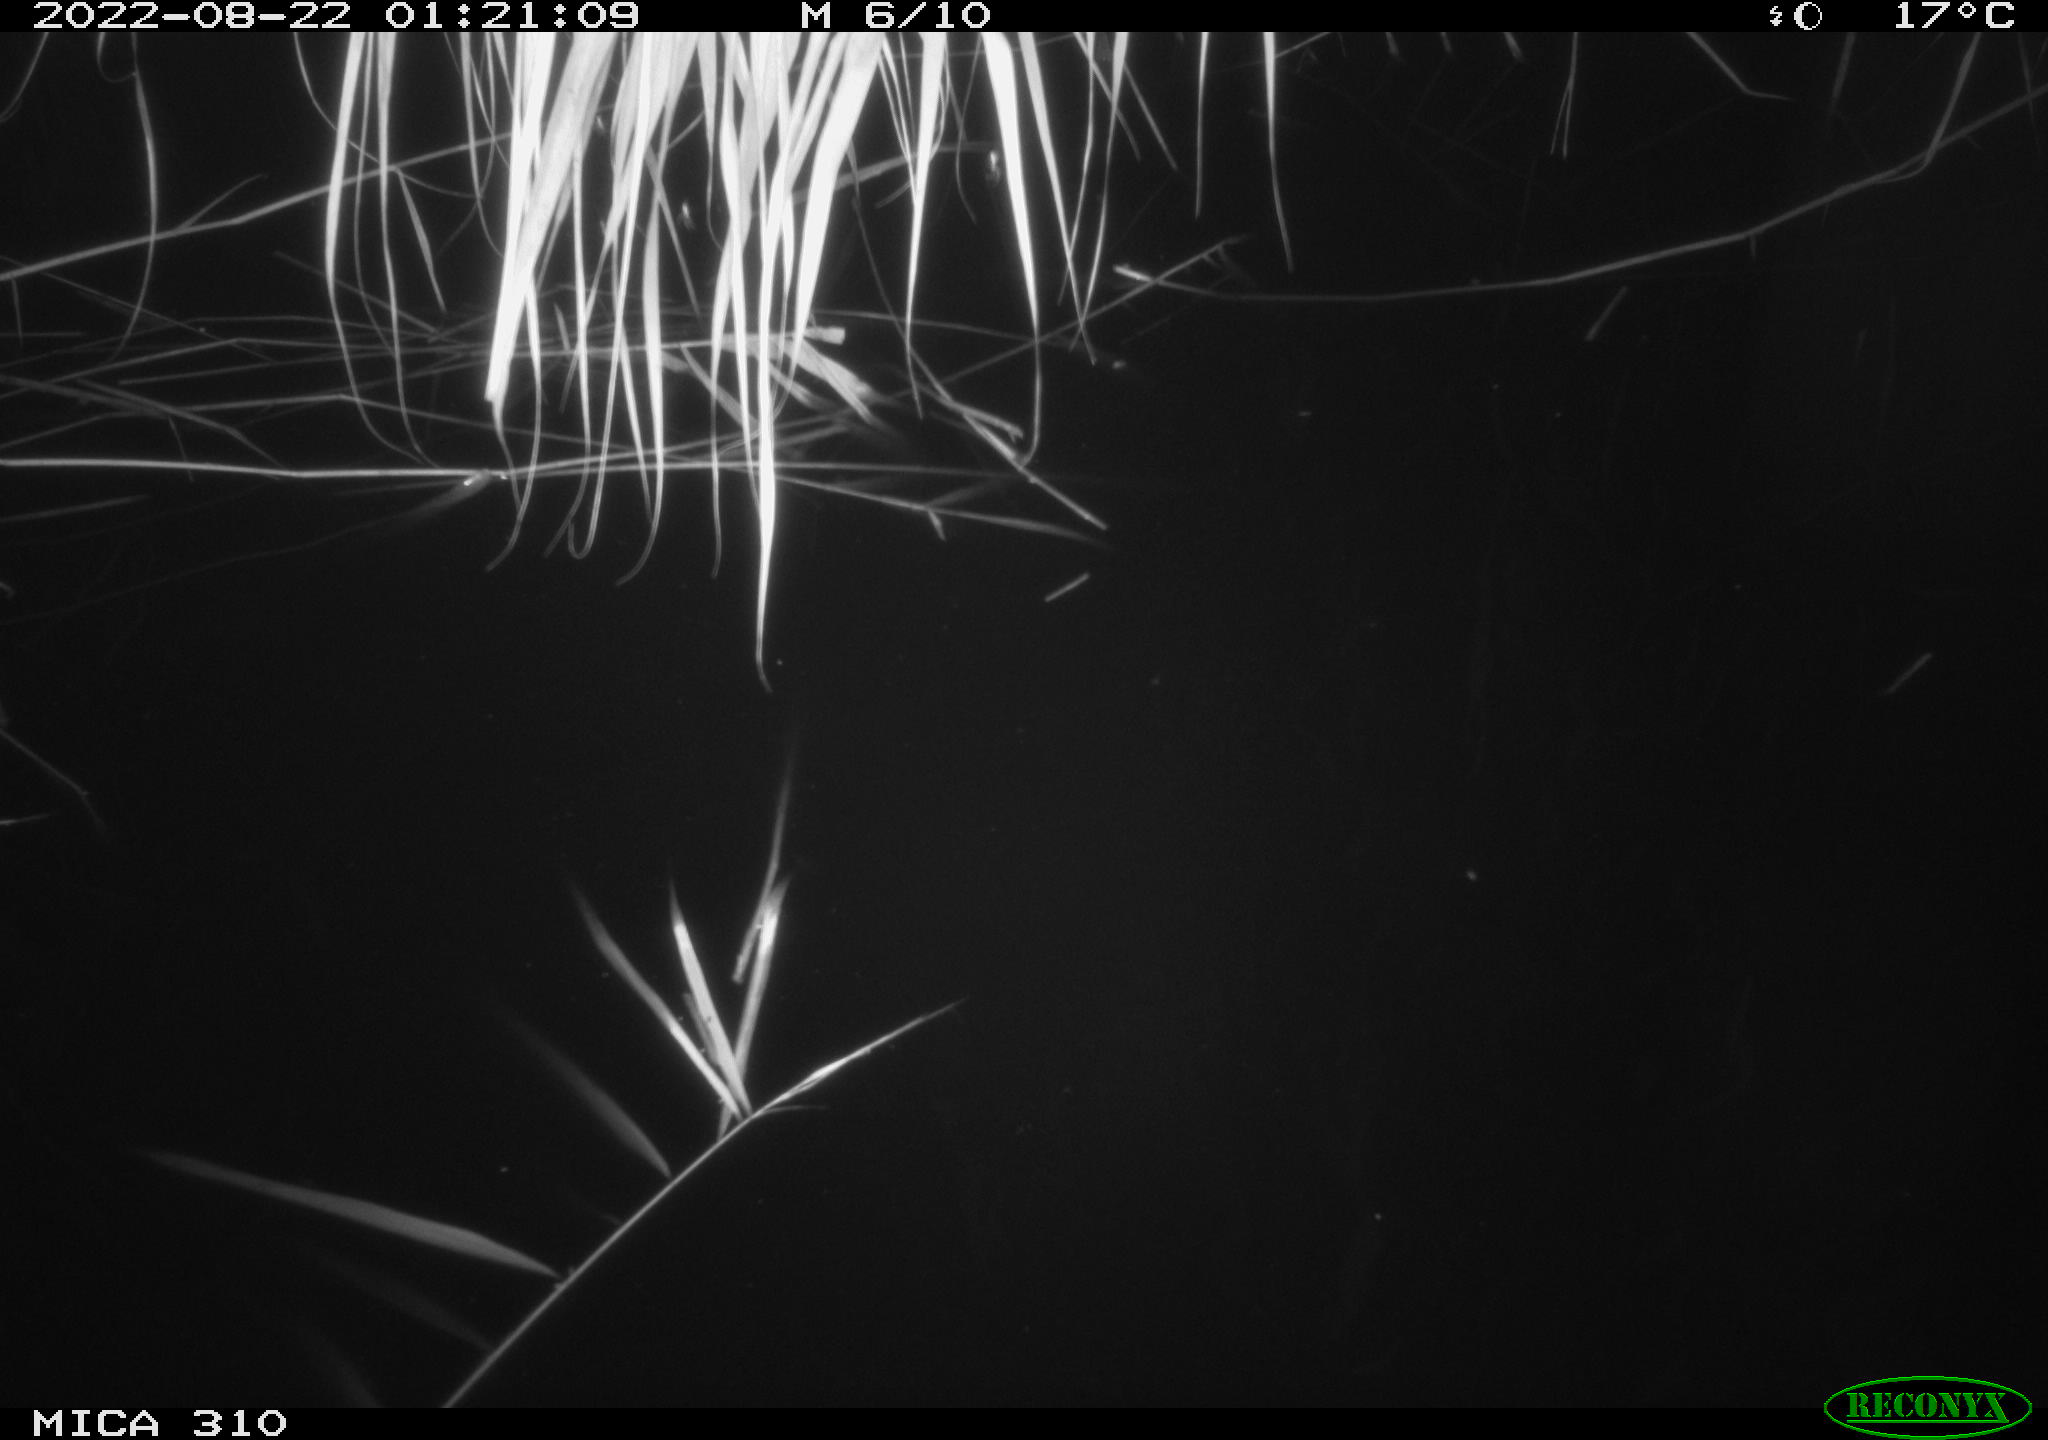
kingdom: Animalia
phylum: Chordata
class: Mammalia
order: Rodentia
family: Muridae
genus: Rattus
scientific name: Rattus norvegicus
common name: Brown rat
